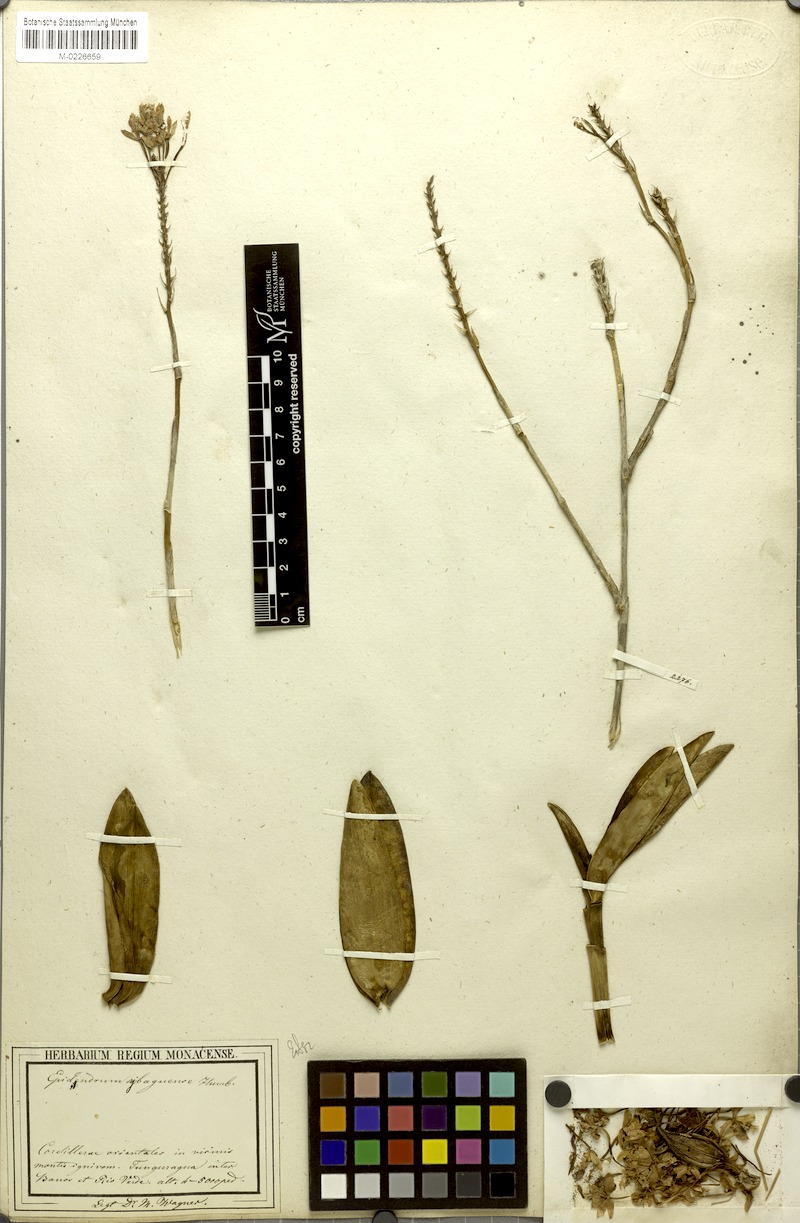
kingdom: Plantae
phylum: Tracheophyta
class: Liliopsida
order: Asparagales
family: Orchidaceae
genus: Epidendrum
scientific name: Epidendrum ibaguense
